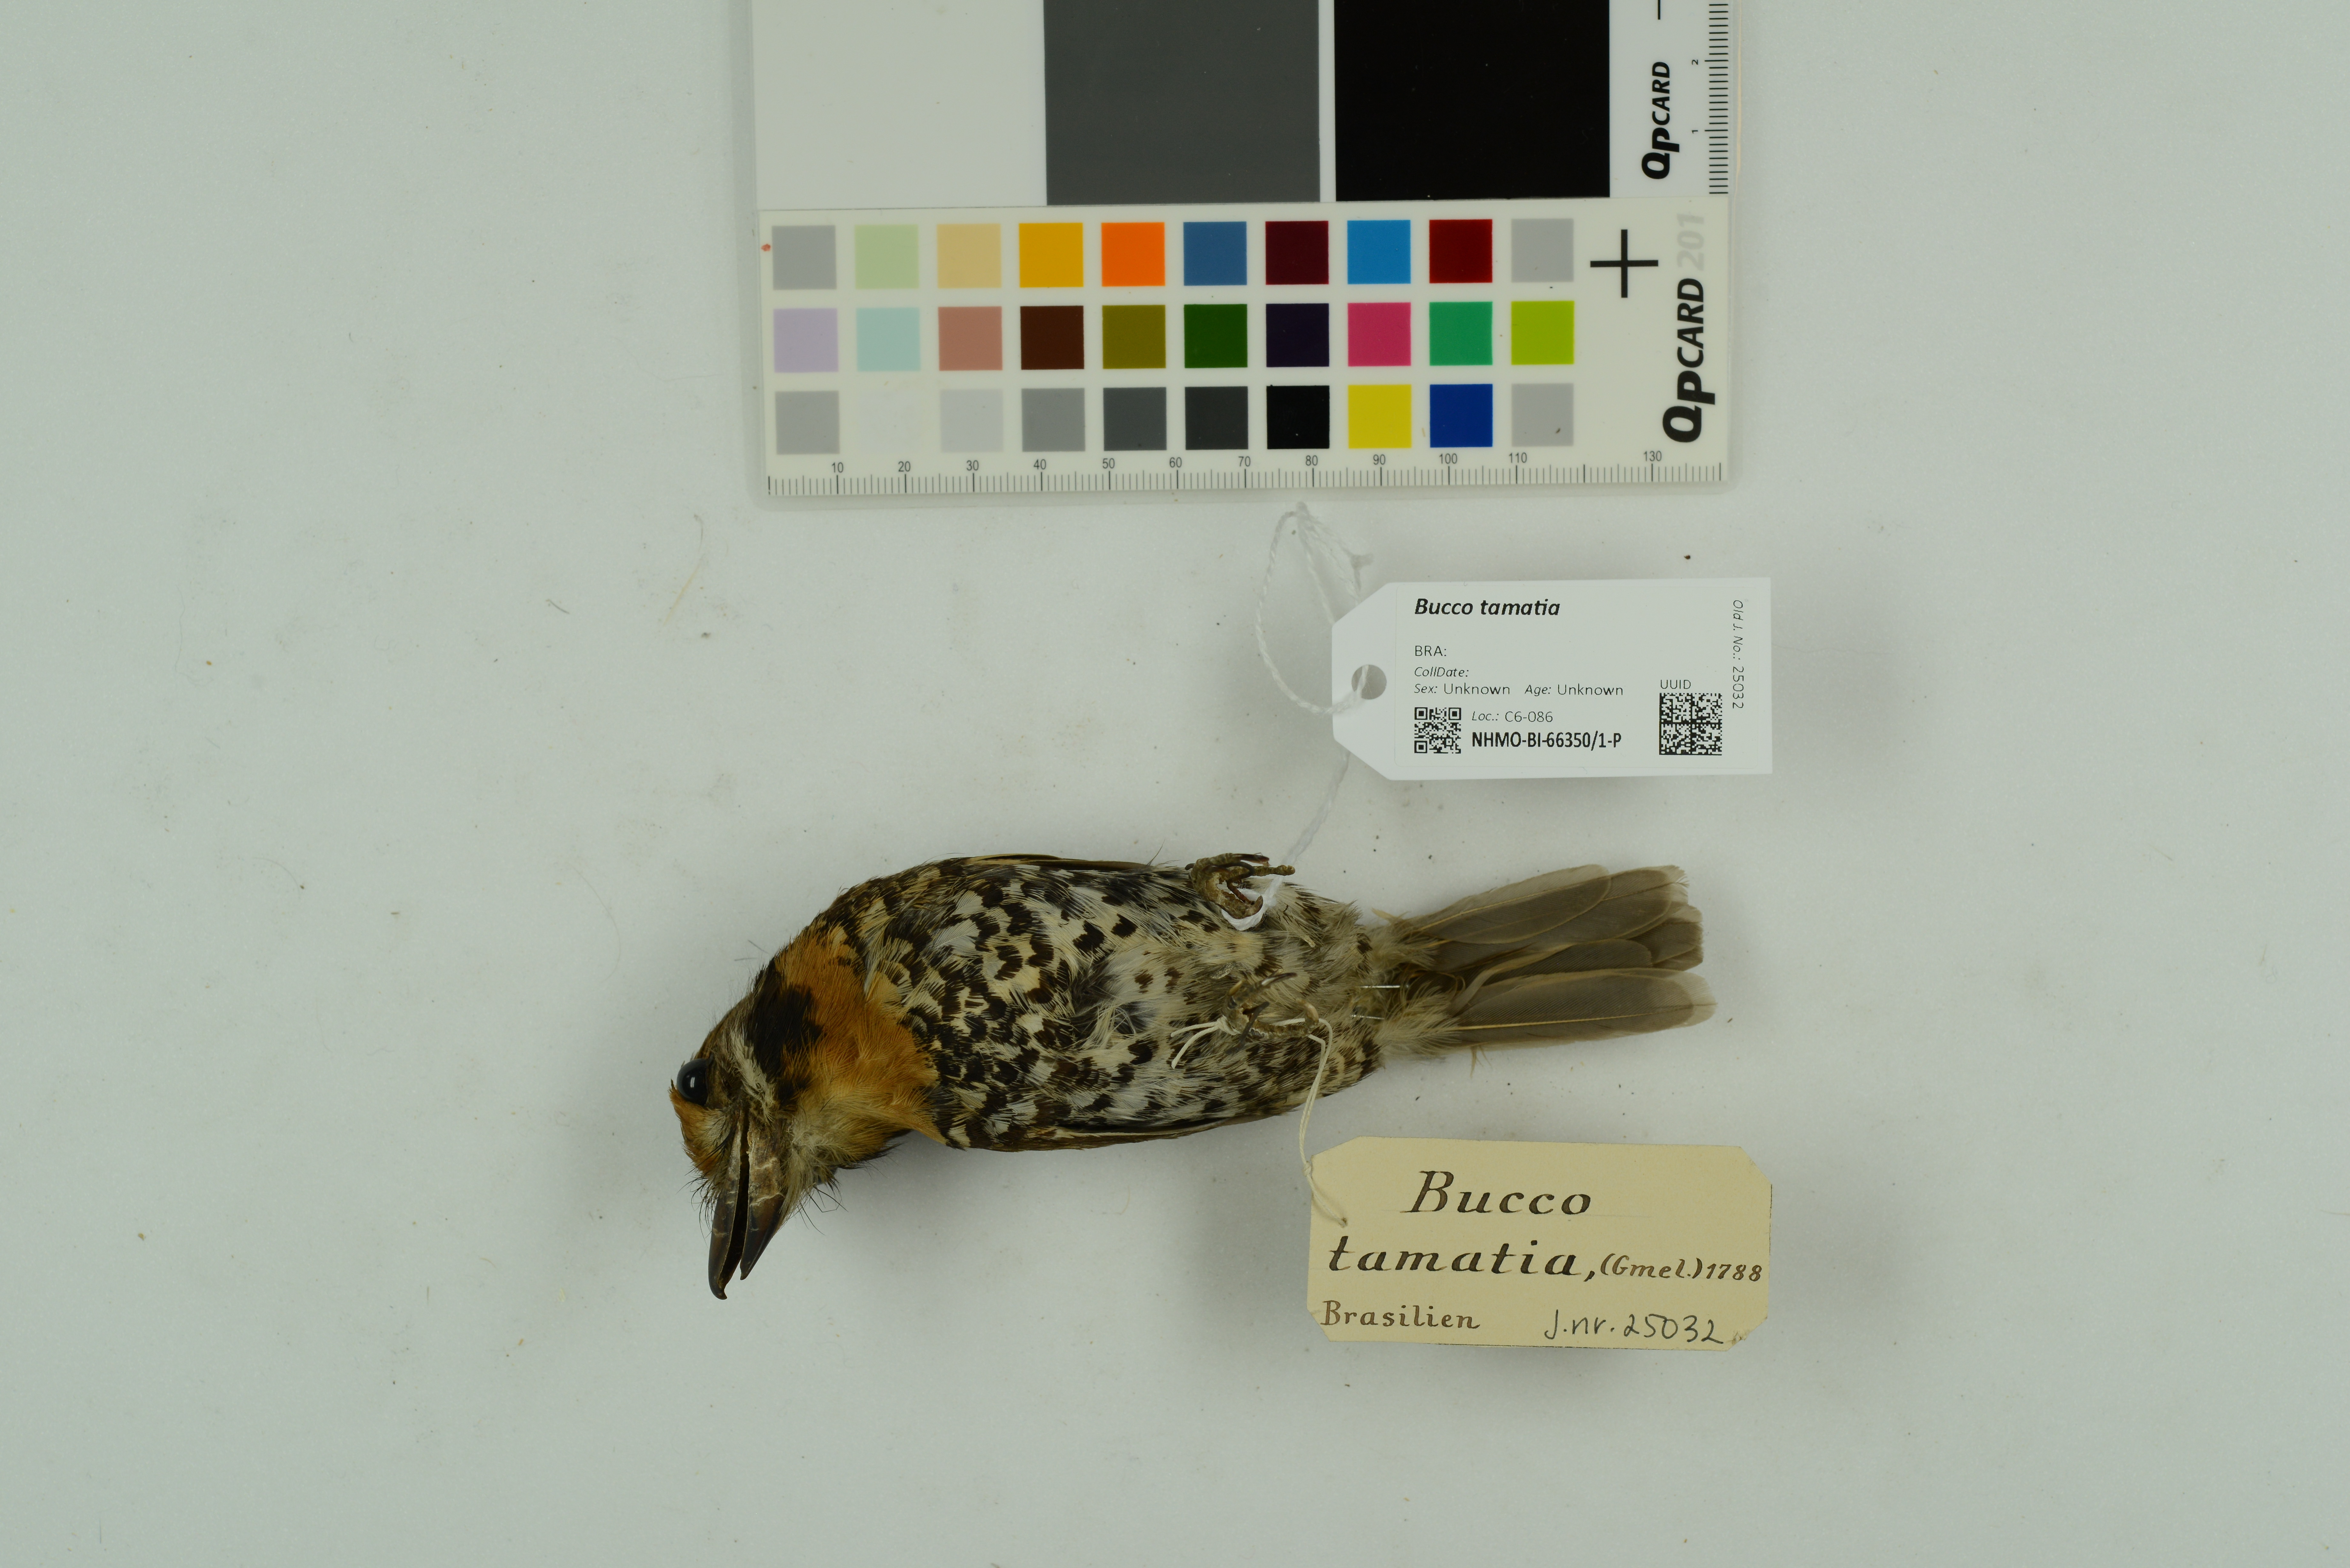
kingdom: Animalia
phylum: Chordata
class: Aves
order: Piciformes
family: Bucconidae
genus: Bucco
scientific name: Bucco tamatia
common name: Spotted puffbird
